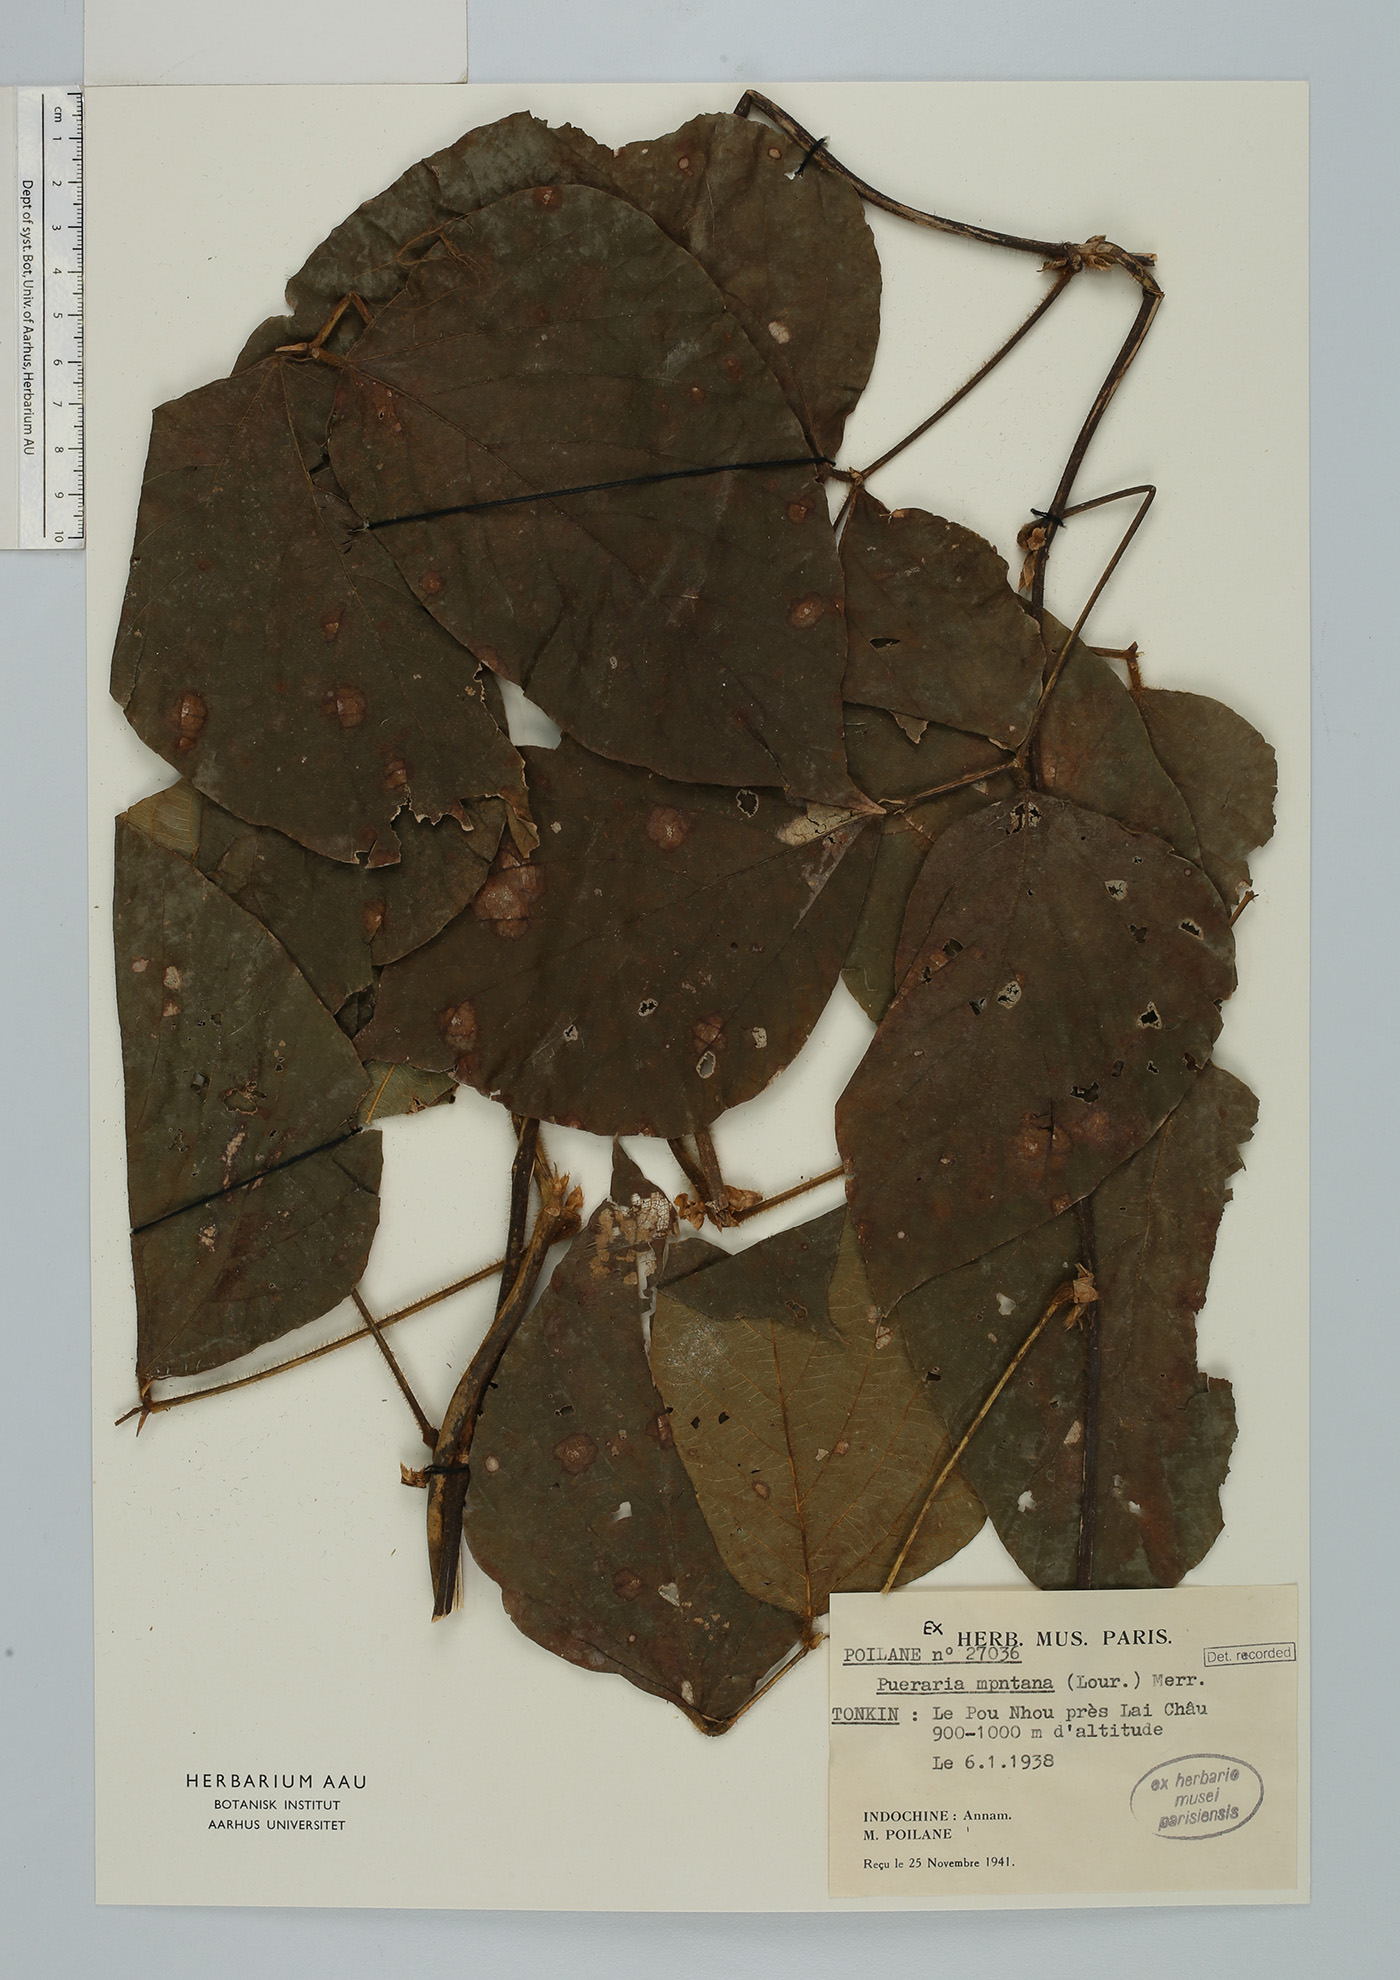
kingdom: Plantae
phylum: Tracheophyta
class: Magnoliopsida
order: Fabales
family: Fabaceae
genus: Pueraria
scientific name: Pueraria
